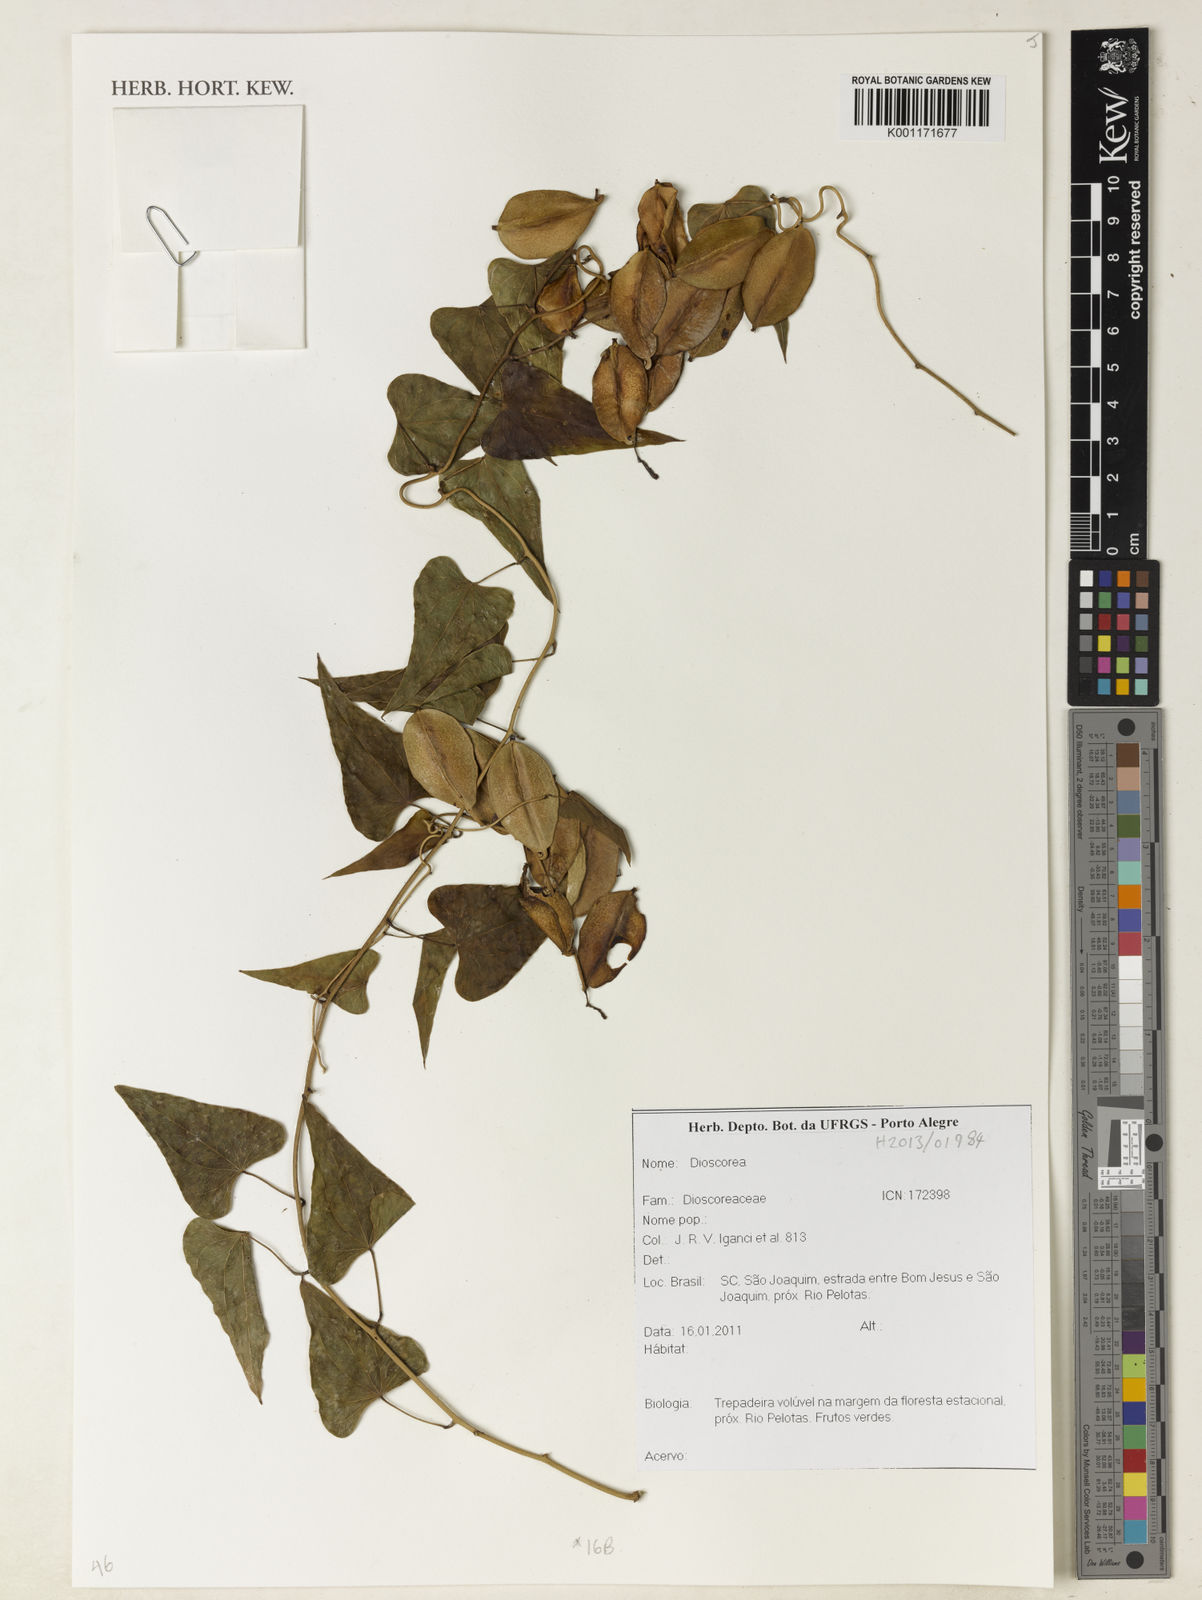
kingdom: Plantae
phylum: Tracheophyta
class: Liliopsida
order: Dioscoreales
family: Dioscoreaceae
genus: Dioscorea
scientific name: Dioscorea multiflora
